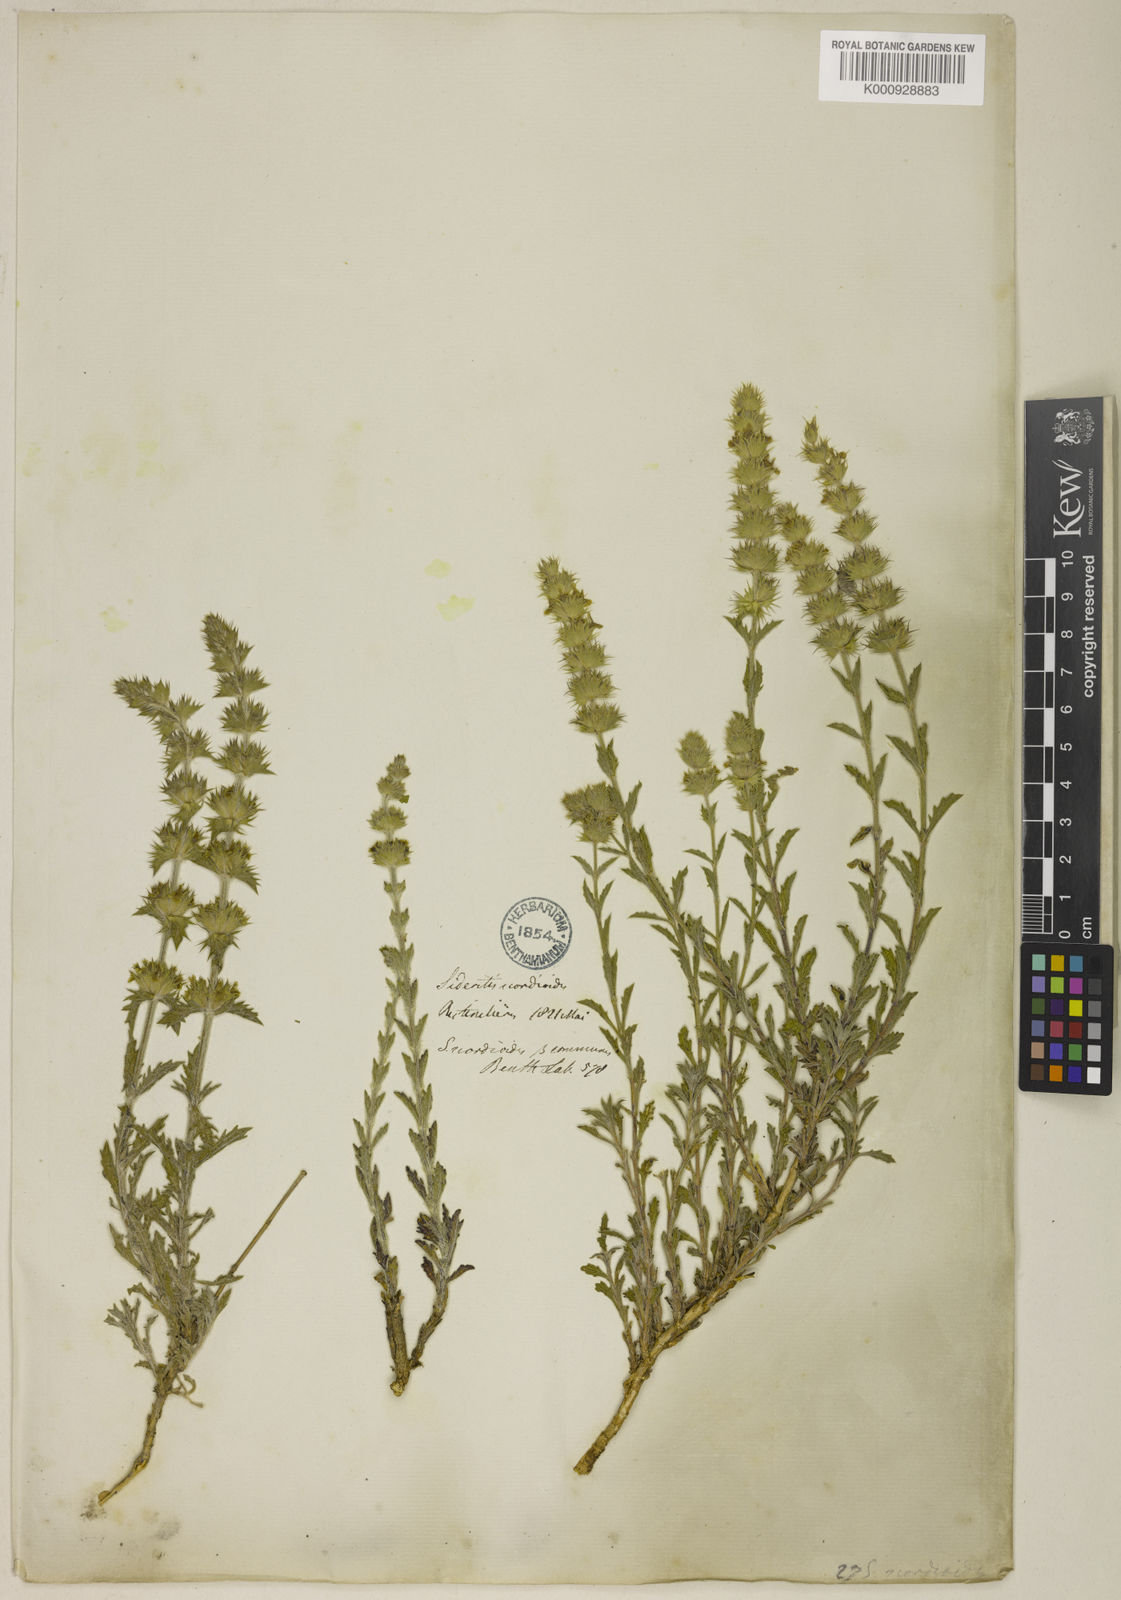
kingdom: Plantae
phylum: Tracheophyta
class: Magnoliopsida
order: Lamiales
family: Lamiaceae
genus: Sideritis
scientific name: Sideritis hyssopifolia
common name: Mountain tea
